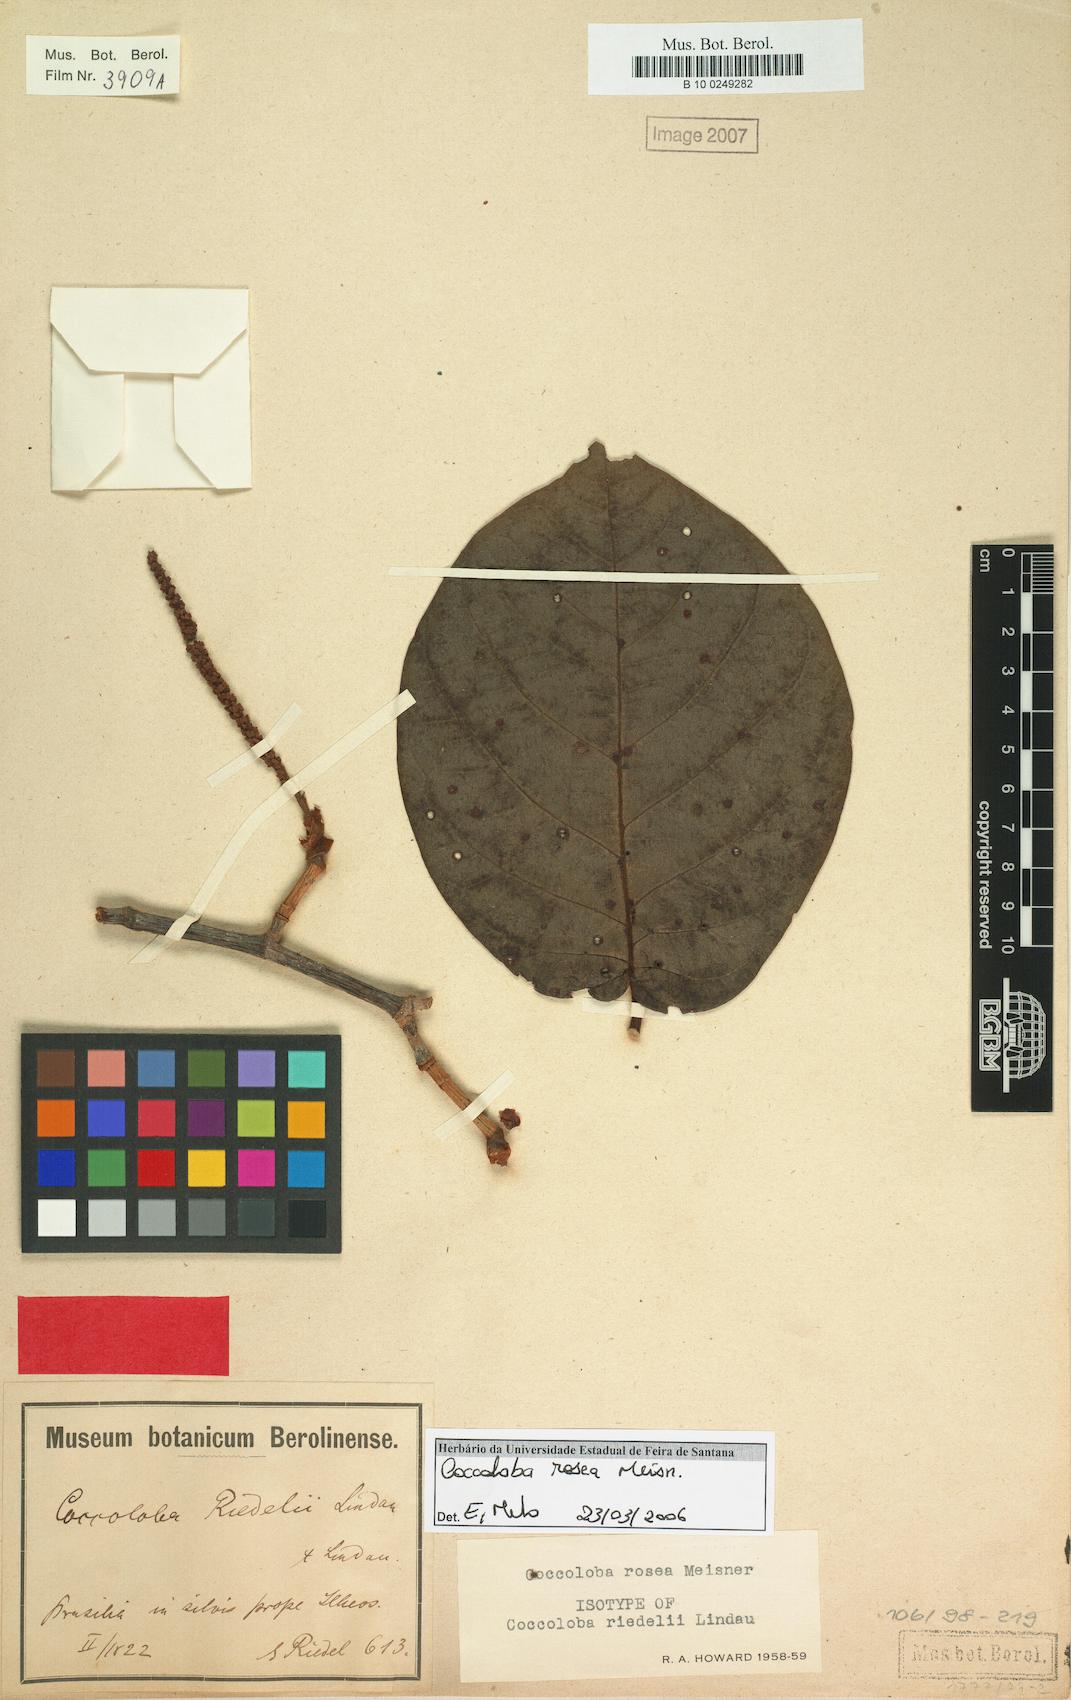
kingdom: Plantae
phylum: Tracheophyta
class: Magnoliopsida
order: Caryophyllales
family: Polygonaceae
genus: Coccoloba
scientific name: Coccoloba rosea
